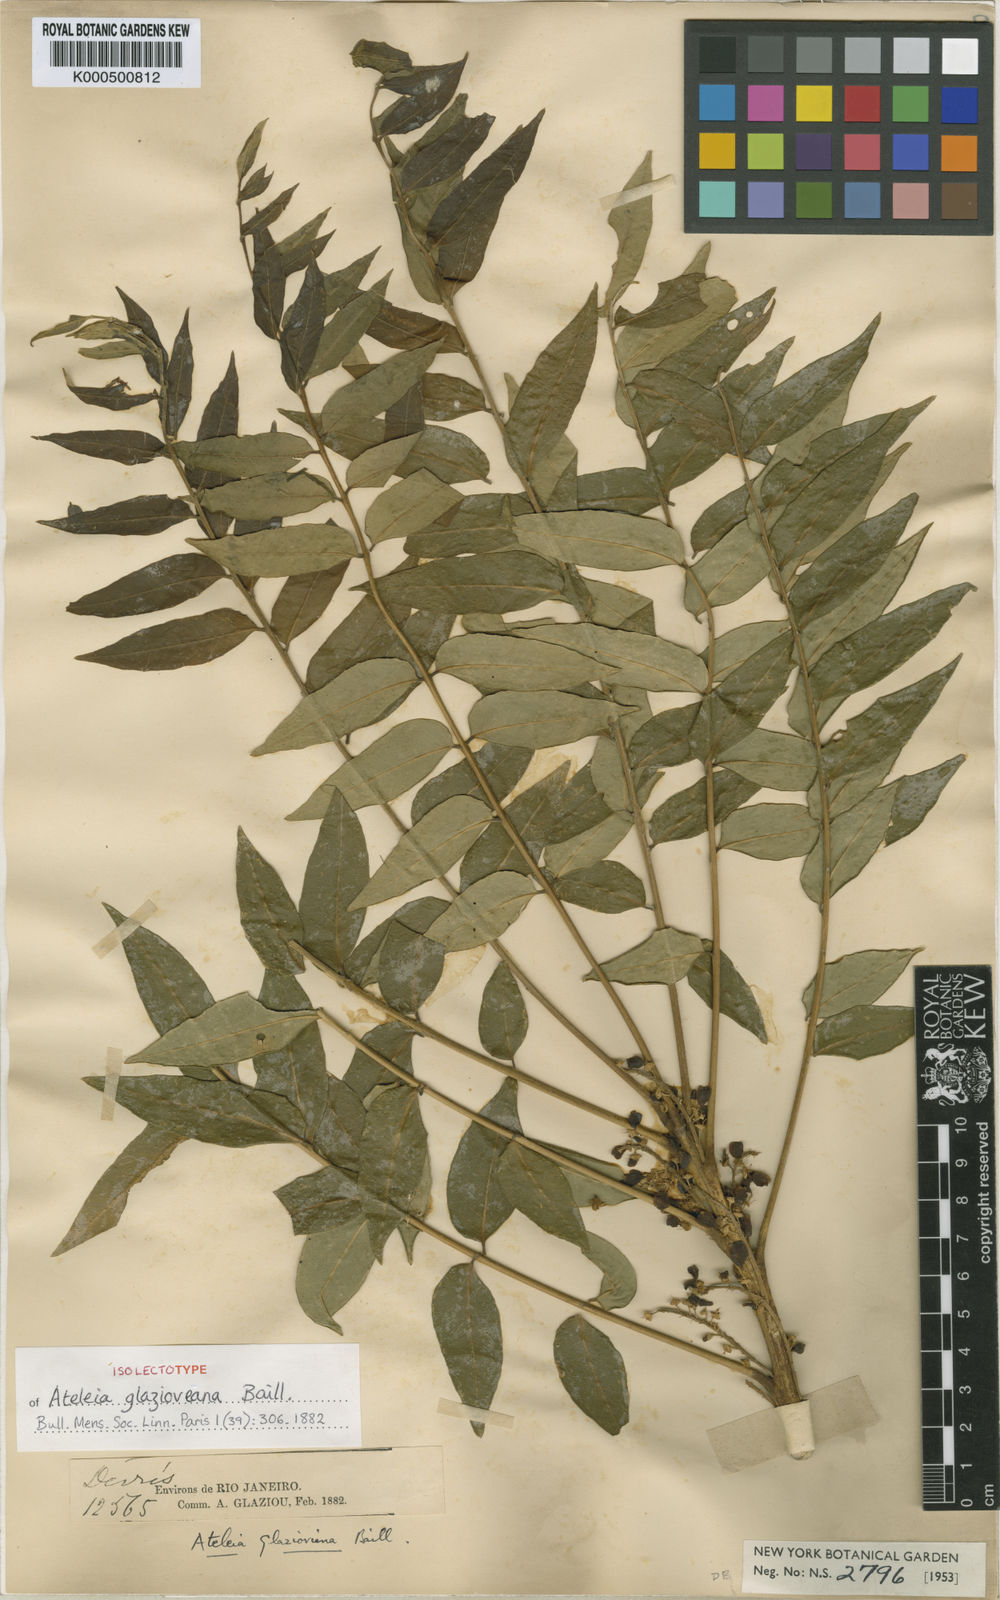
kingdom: Plantae
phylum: Tracheophyta
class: Magnoliopsida
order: Fabales
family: Fabaceae
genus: Ateleia
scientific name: Ateleia glazioveana
